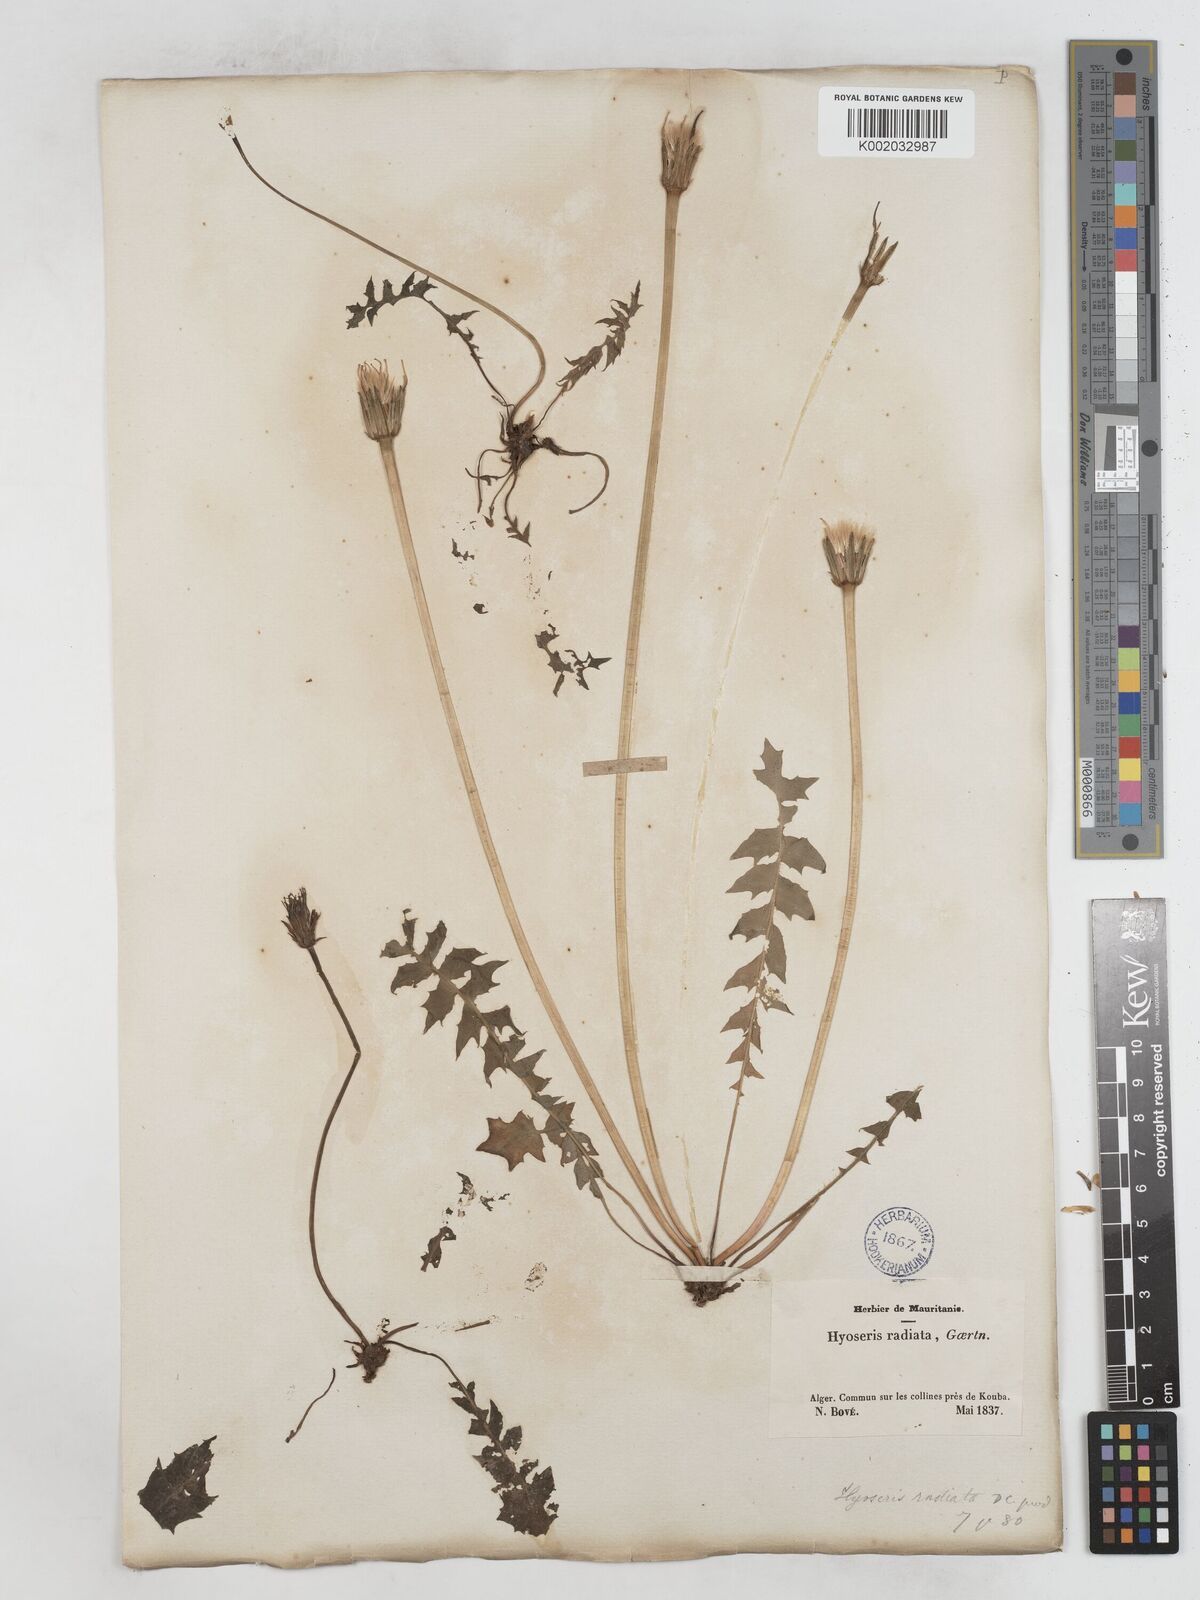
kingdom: Plantae
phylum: Tracheophyta
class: Magnoliopsida
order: Asterales
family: Asteraceae
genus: Hyoseris
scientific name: Hyoseris radiata
